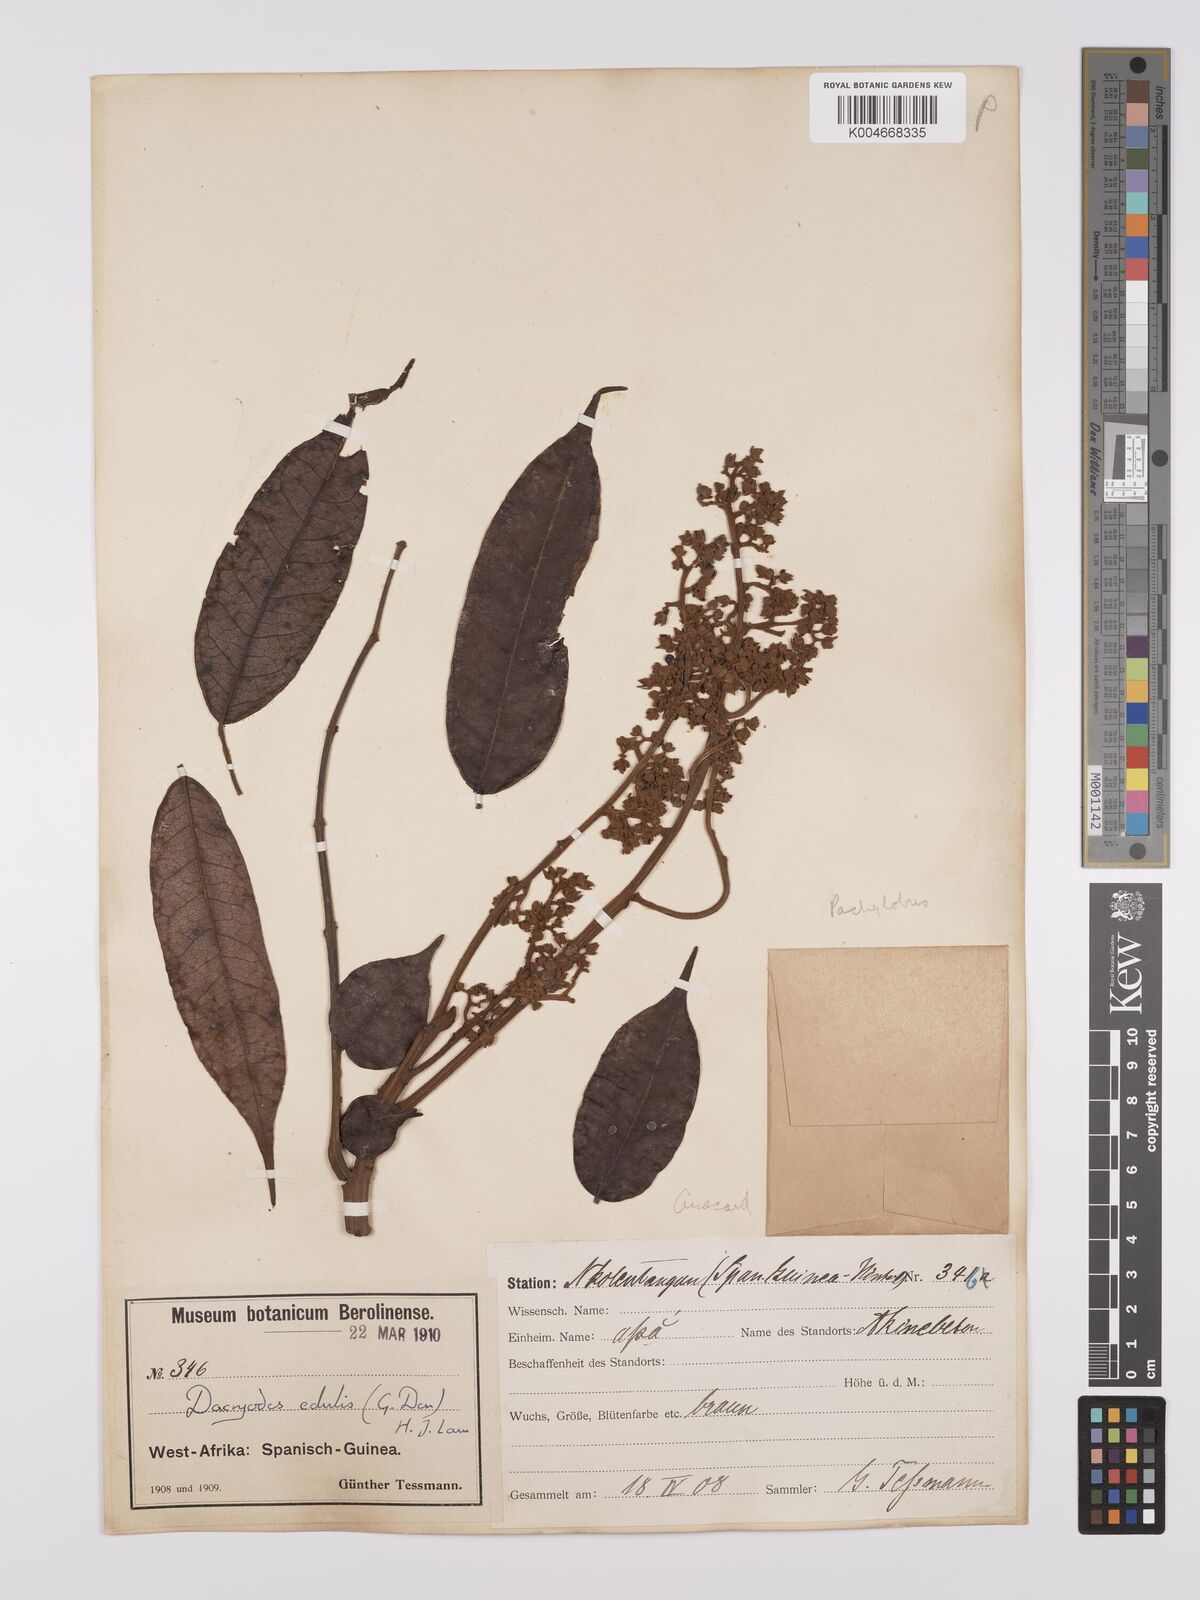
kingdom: Plantae
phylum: Tracheophyta
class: Magnoliopsida
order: Sapindales
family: Burseraceae
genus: Pachylobus
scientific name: Pachylobus edulis
